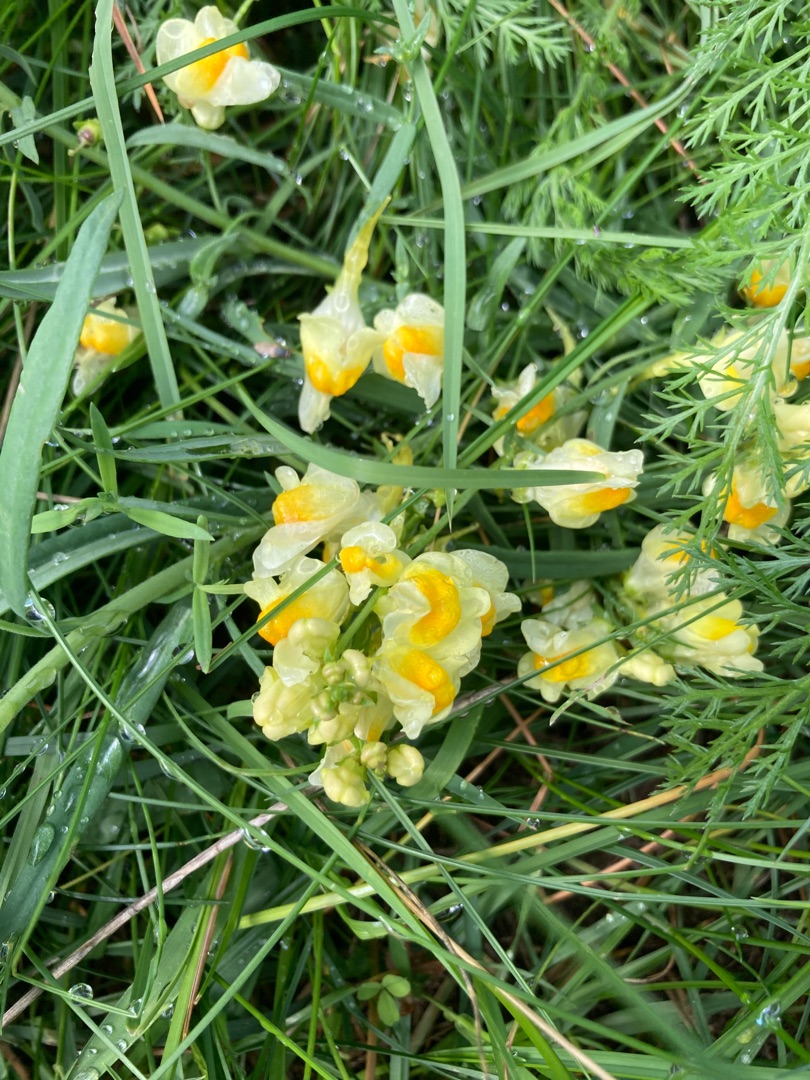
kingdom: Plantae
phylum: Tracheophyta
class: Magnoliopsida
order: Lamiales
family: Plantaginaceae
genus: Linaria
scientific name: Linaria vulgaris
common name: Almindelig torskemund
